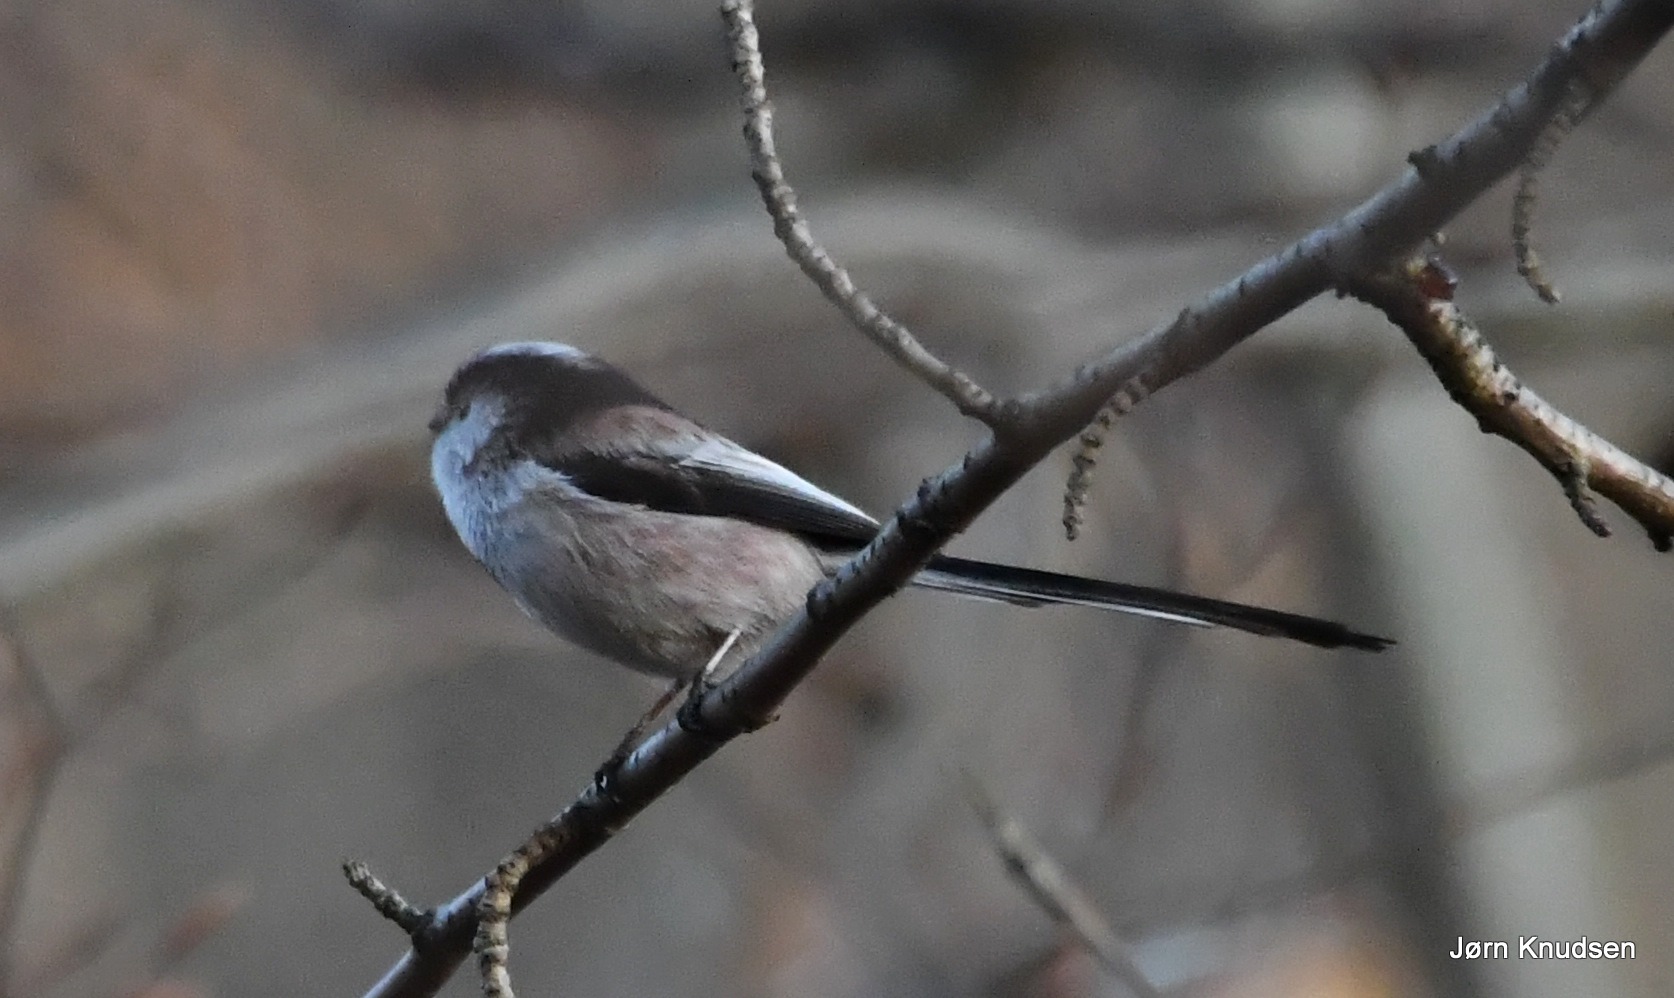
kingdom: Animalia
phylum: Chordata
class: Aves
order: Passeriformes
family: Aegithalidae
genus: Aegithalos
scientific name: Aegithalos caudatus
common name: Halemejse
